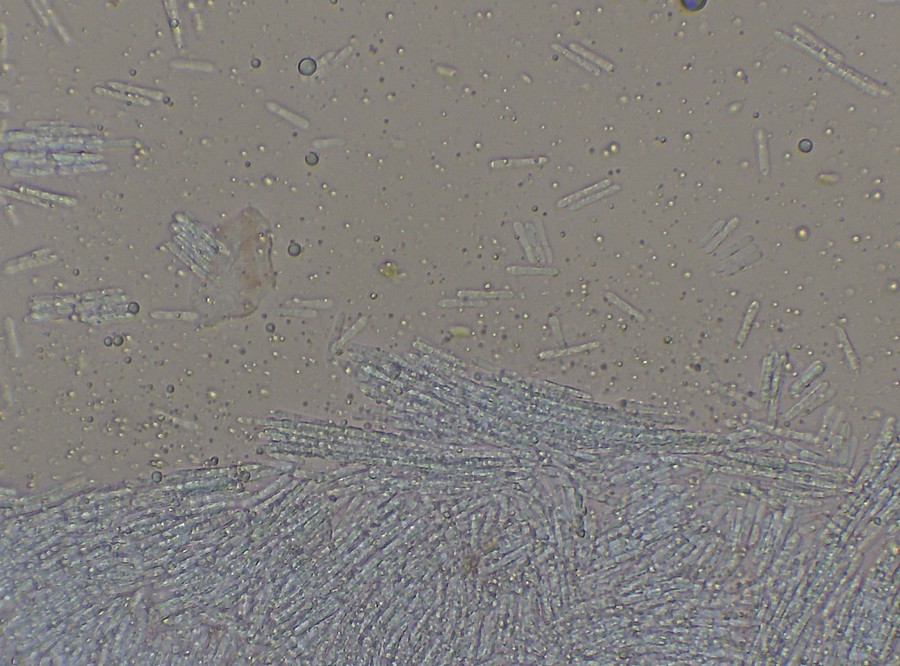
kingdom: Fungi
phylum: Ascomycota
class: Leotiomycetes
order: Helotiales
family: Helotiaceae
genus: Trichotheca
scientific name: Trichotheca alba
